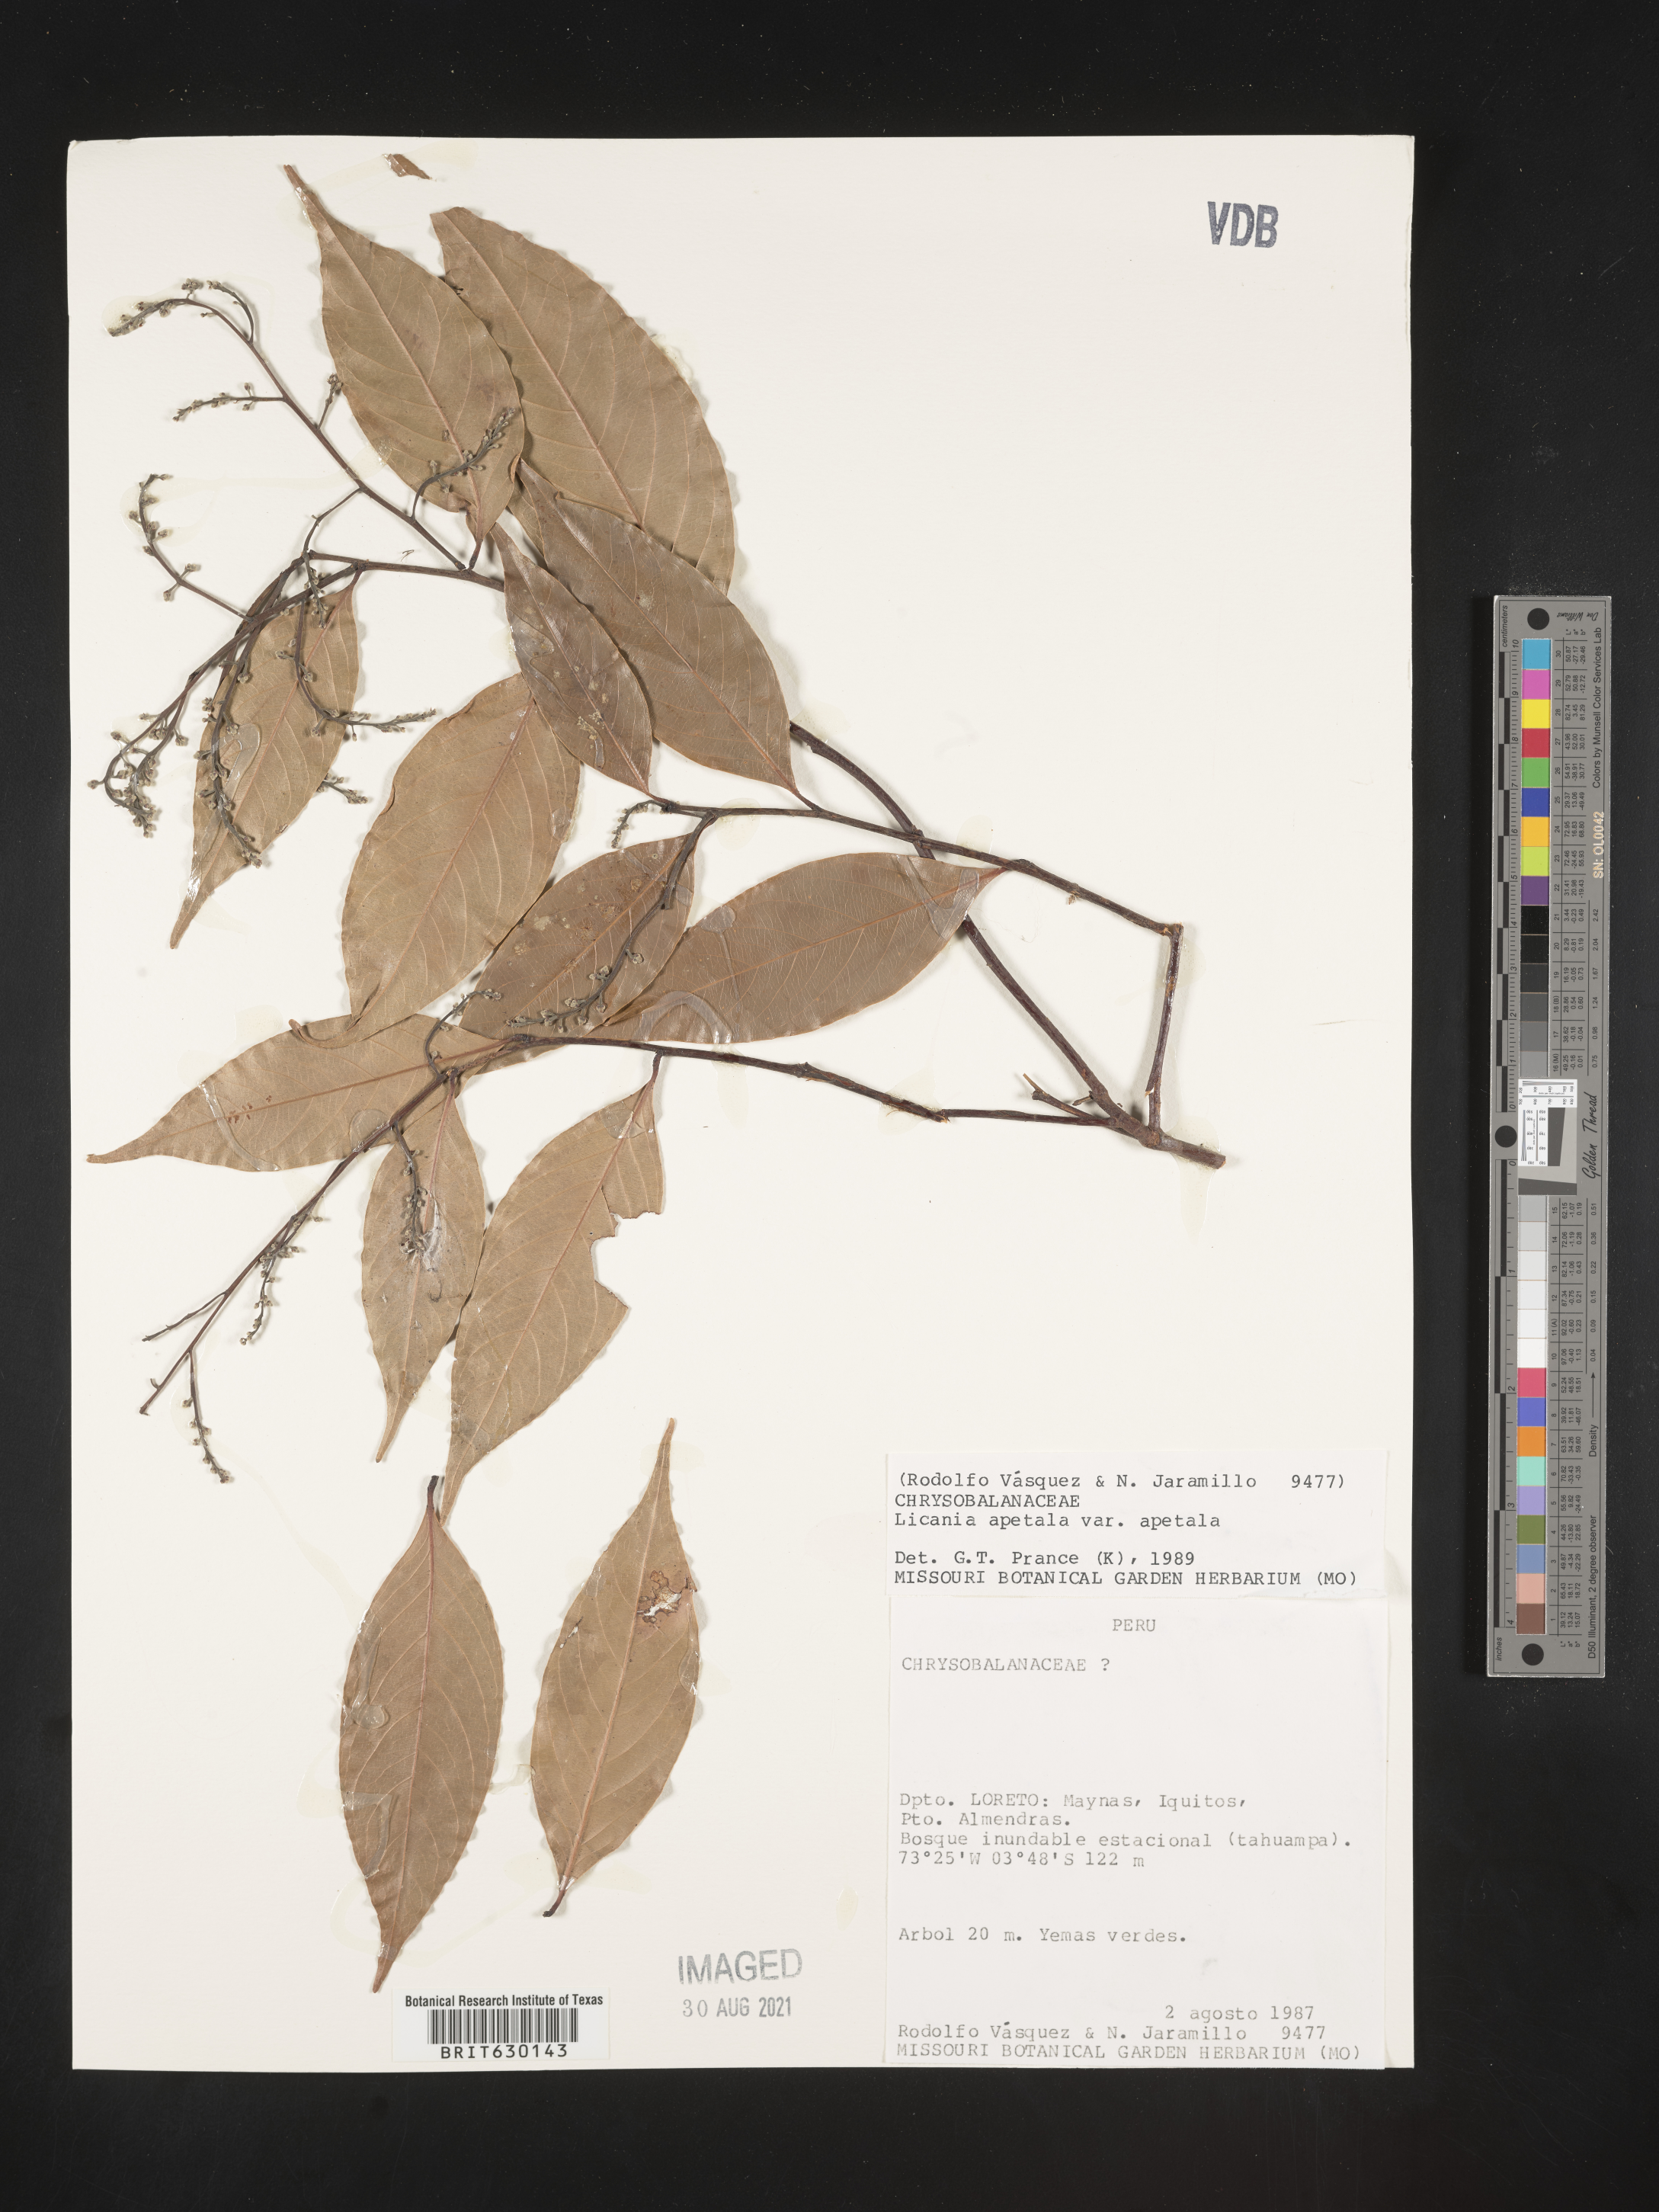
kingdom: Plantae
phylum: Tracheophyta
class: Magnoliopsida
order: Malpighiales
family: Chrysobalanaceae
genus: Leptobalanus
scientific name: Leptobalanus apetalus
